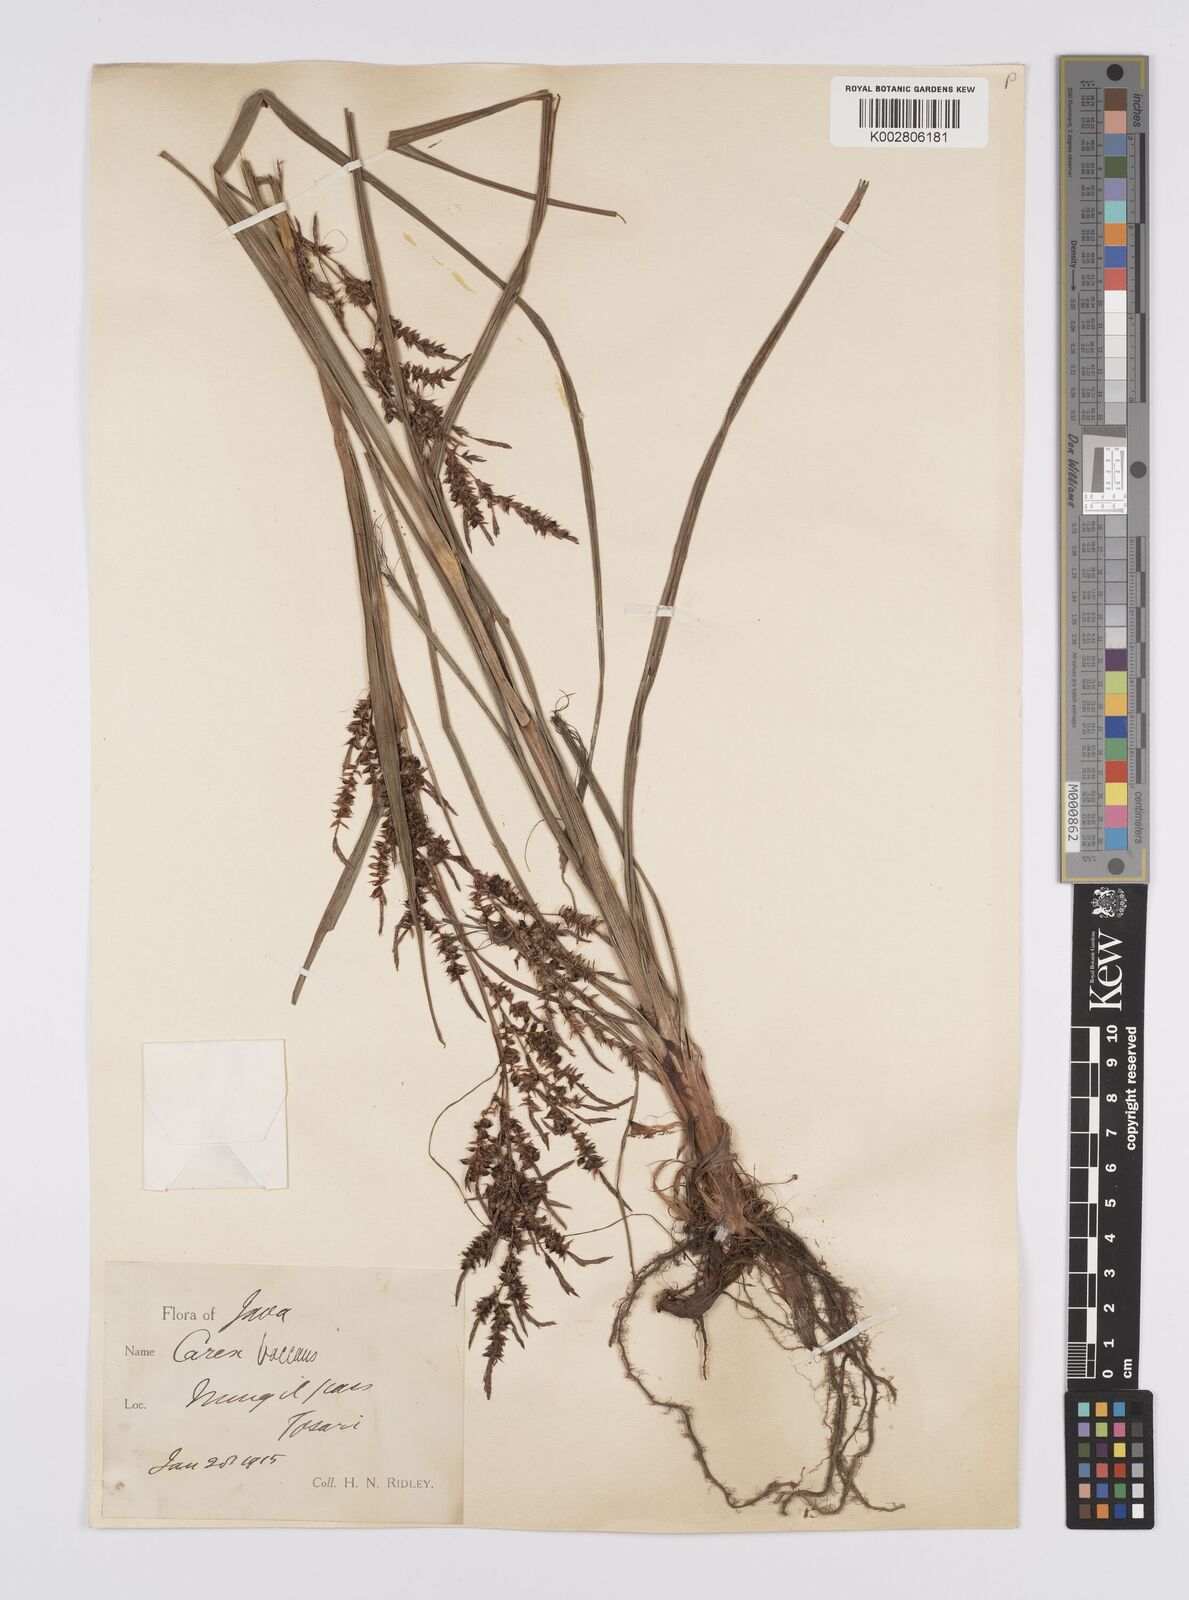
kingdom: Plantae
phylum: Tracheophyta
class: Liliopsida
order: Poales
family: Cyperaceae
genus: Carex
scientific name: Carex baccans
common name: Crimson seeded sedge
